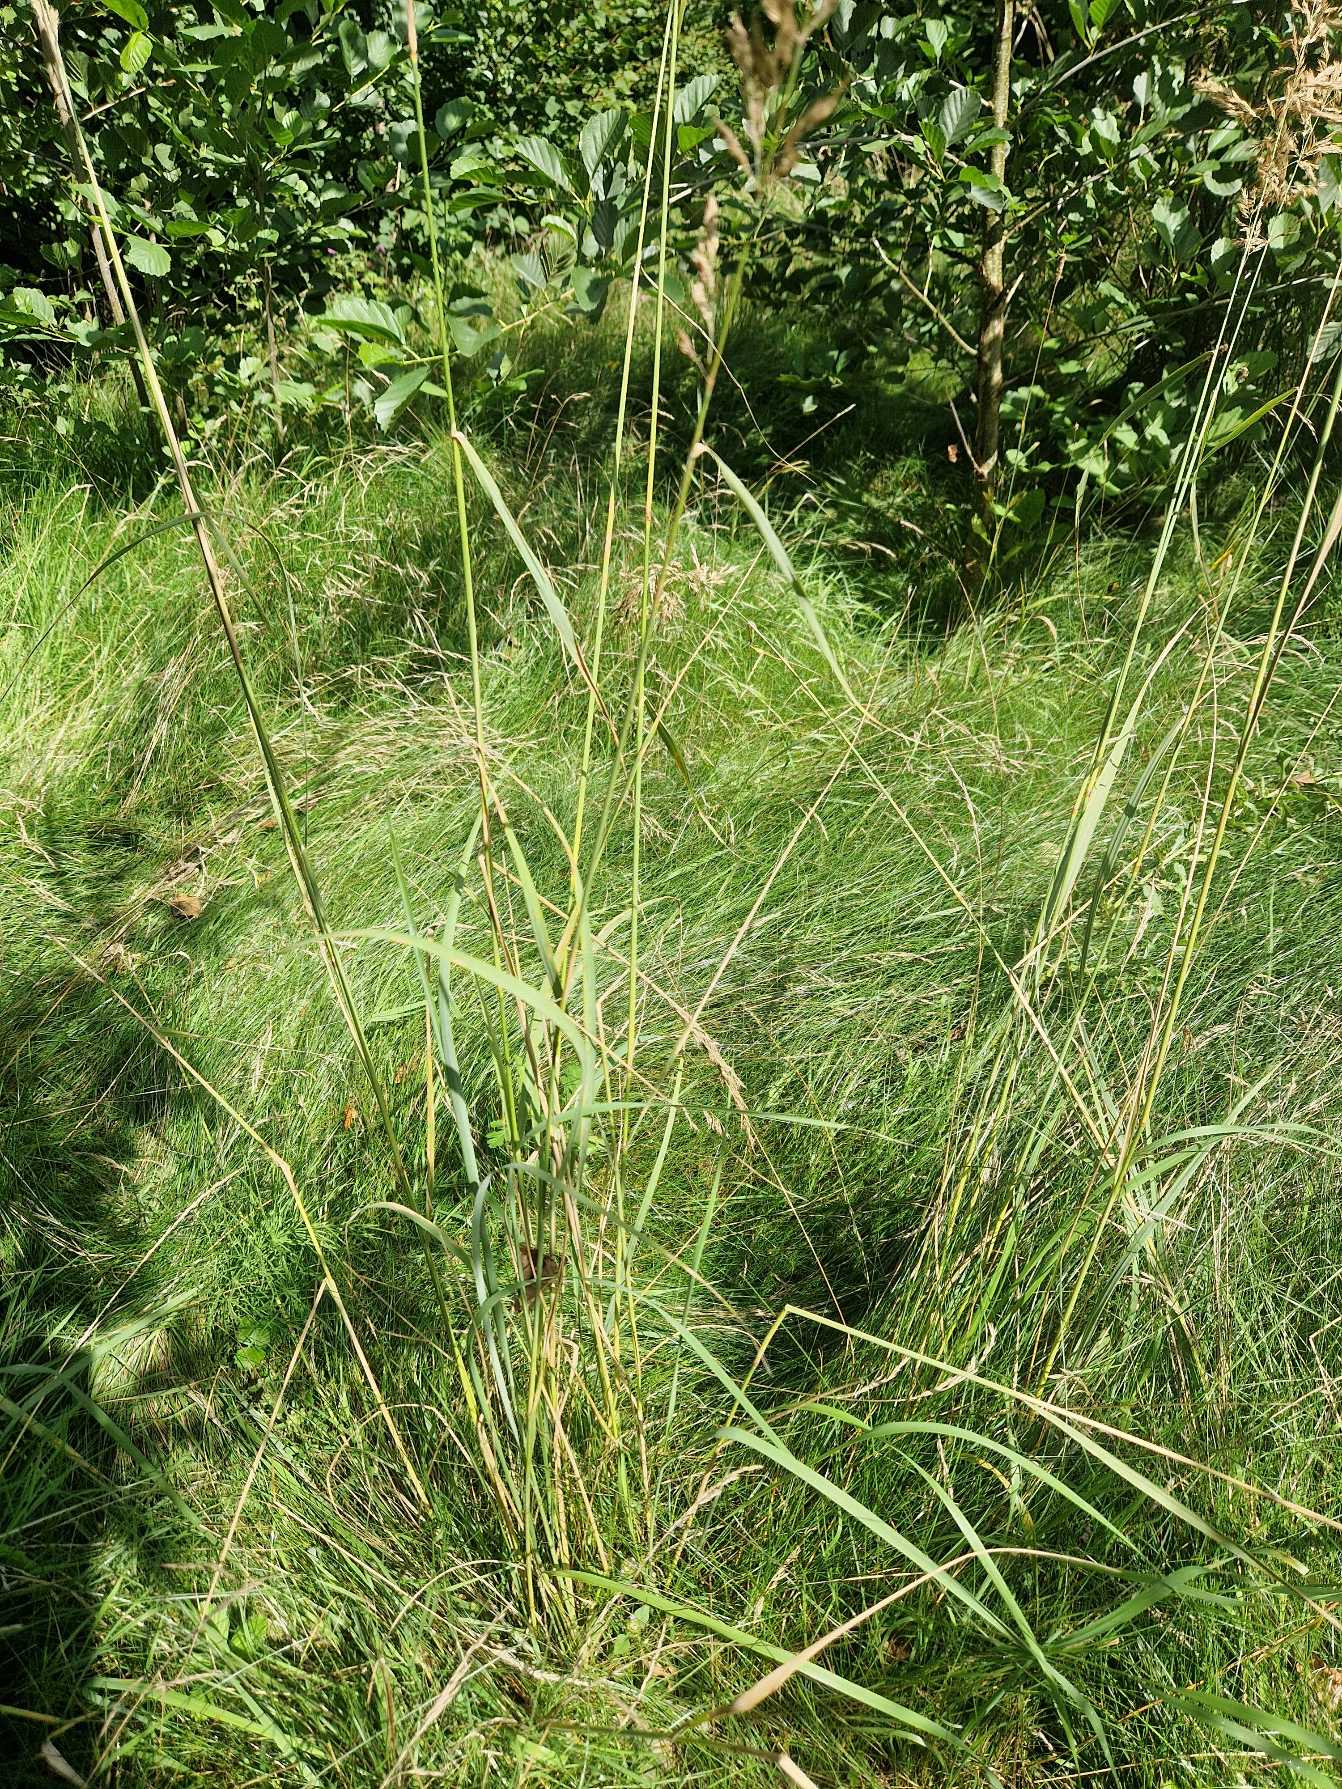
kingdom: Plantae
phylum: Tracheophyta
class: Liliopsida
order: Poales
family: Poaceae
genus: Calamagrostis
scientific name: Calamagrostis epigejos
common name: Bjerg-rørhvene
